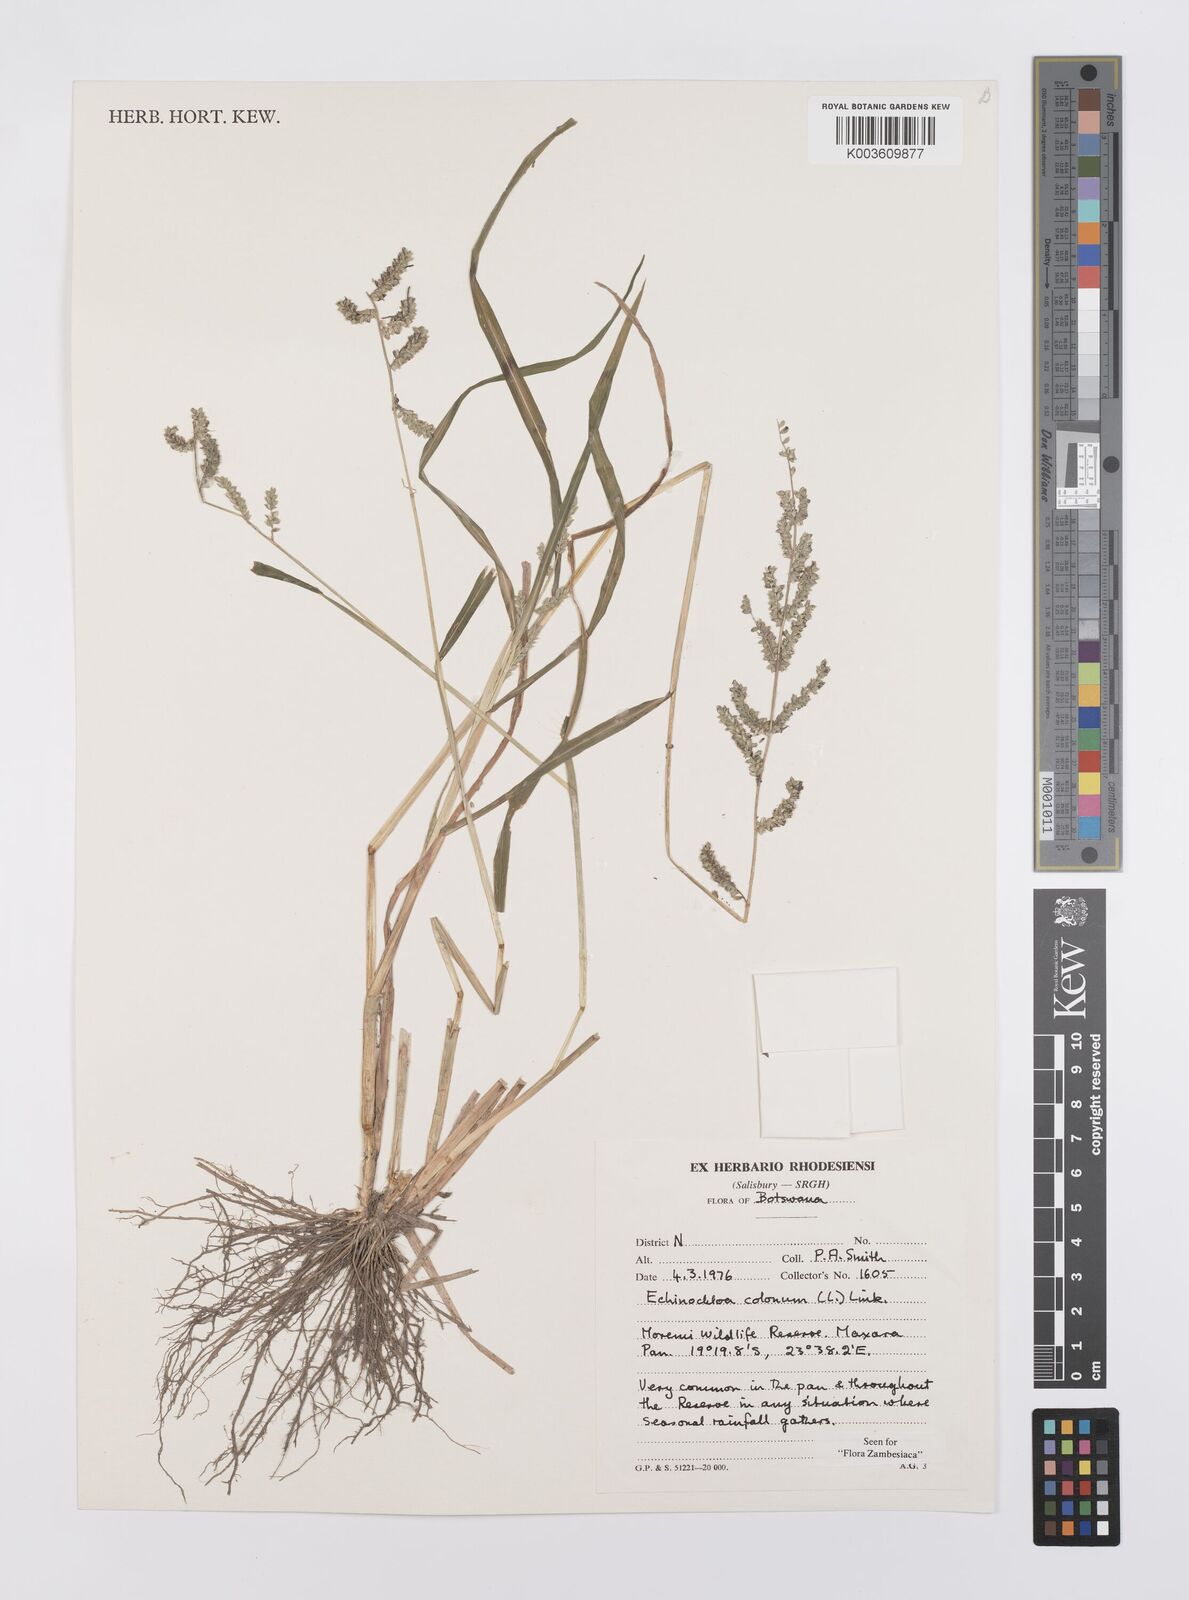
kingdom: Plantae
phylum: Tracheophyta
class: Liliopsida
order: Poales
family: Poaceae
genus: Echinochloa
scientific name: Echinochloa colonum
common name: Jungle rice
